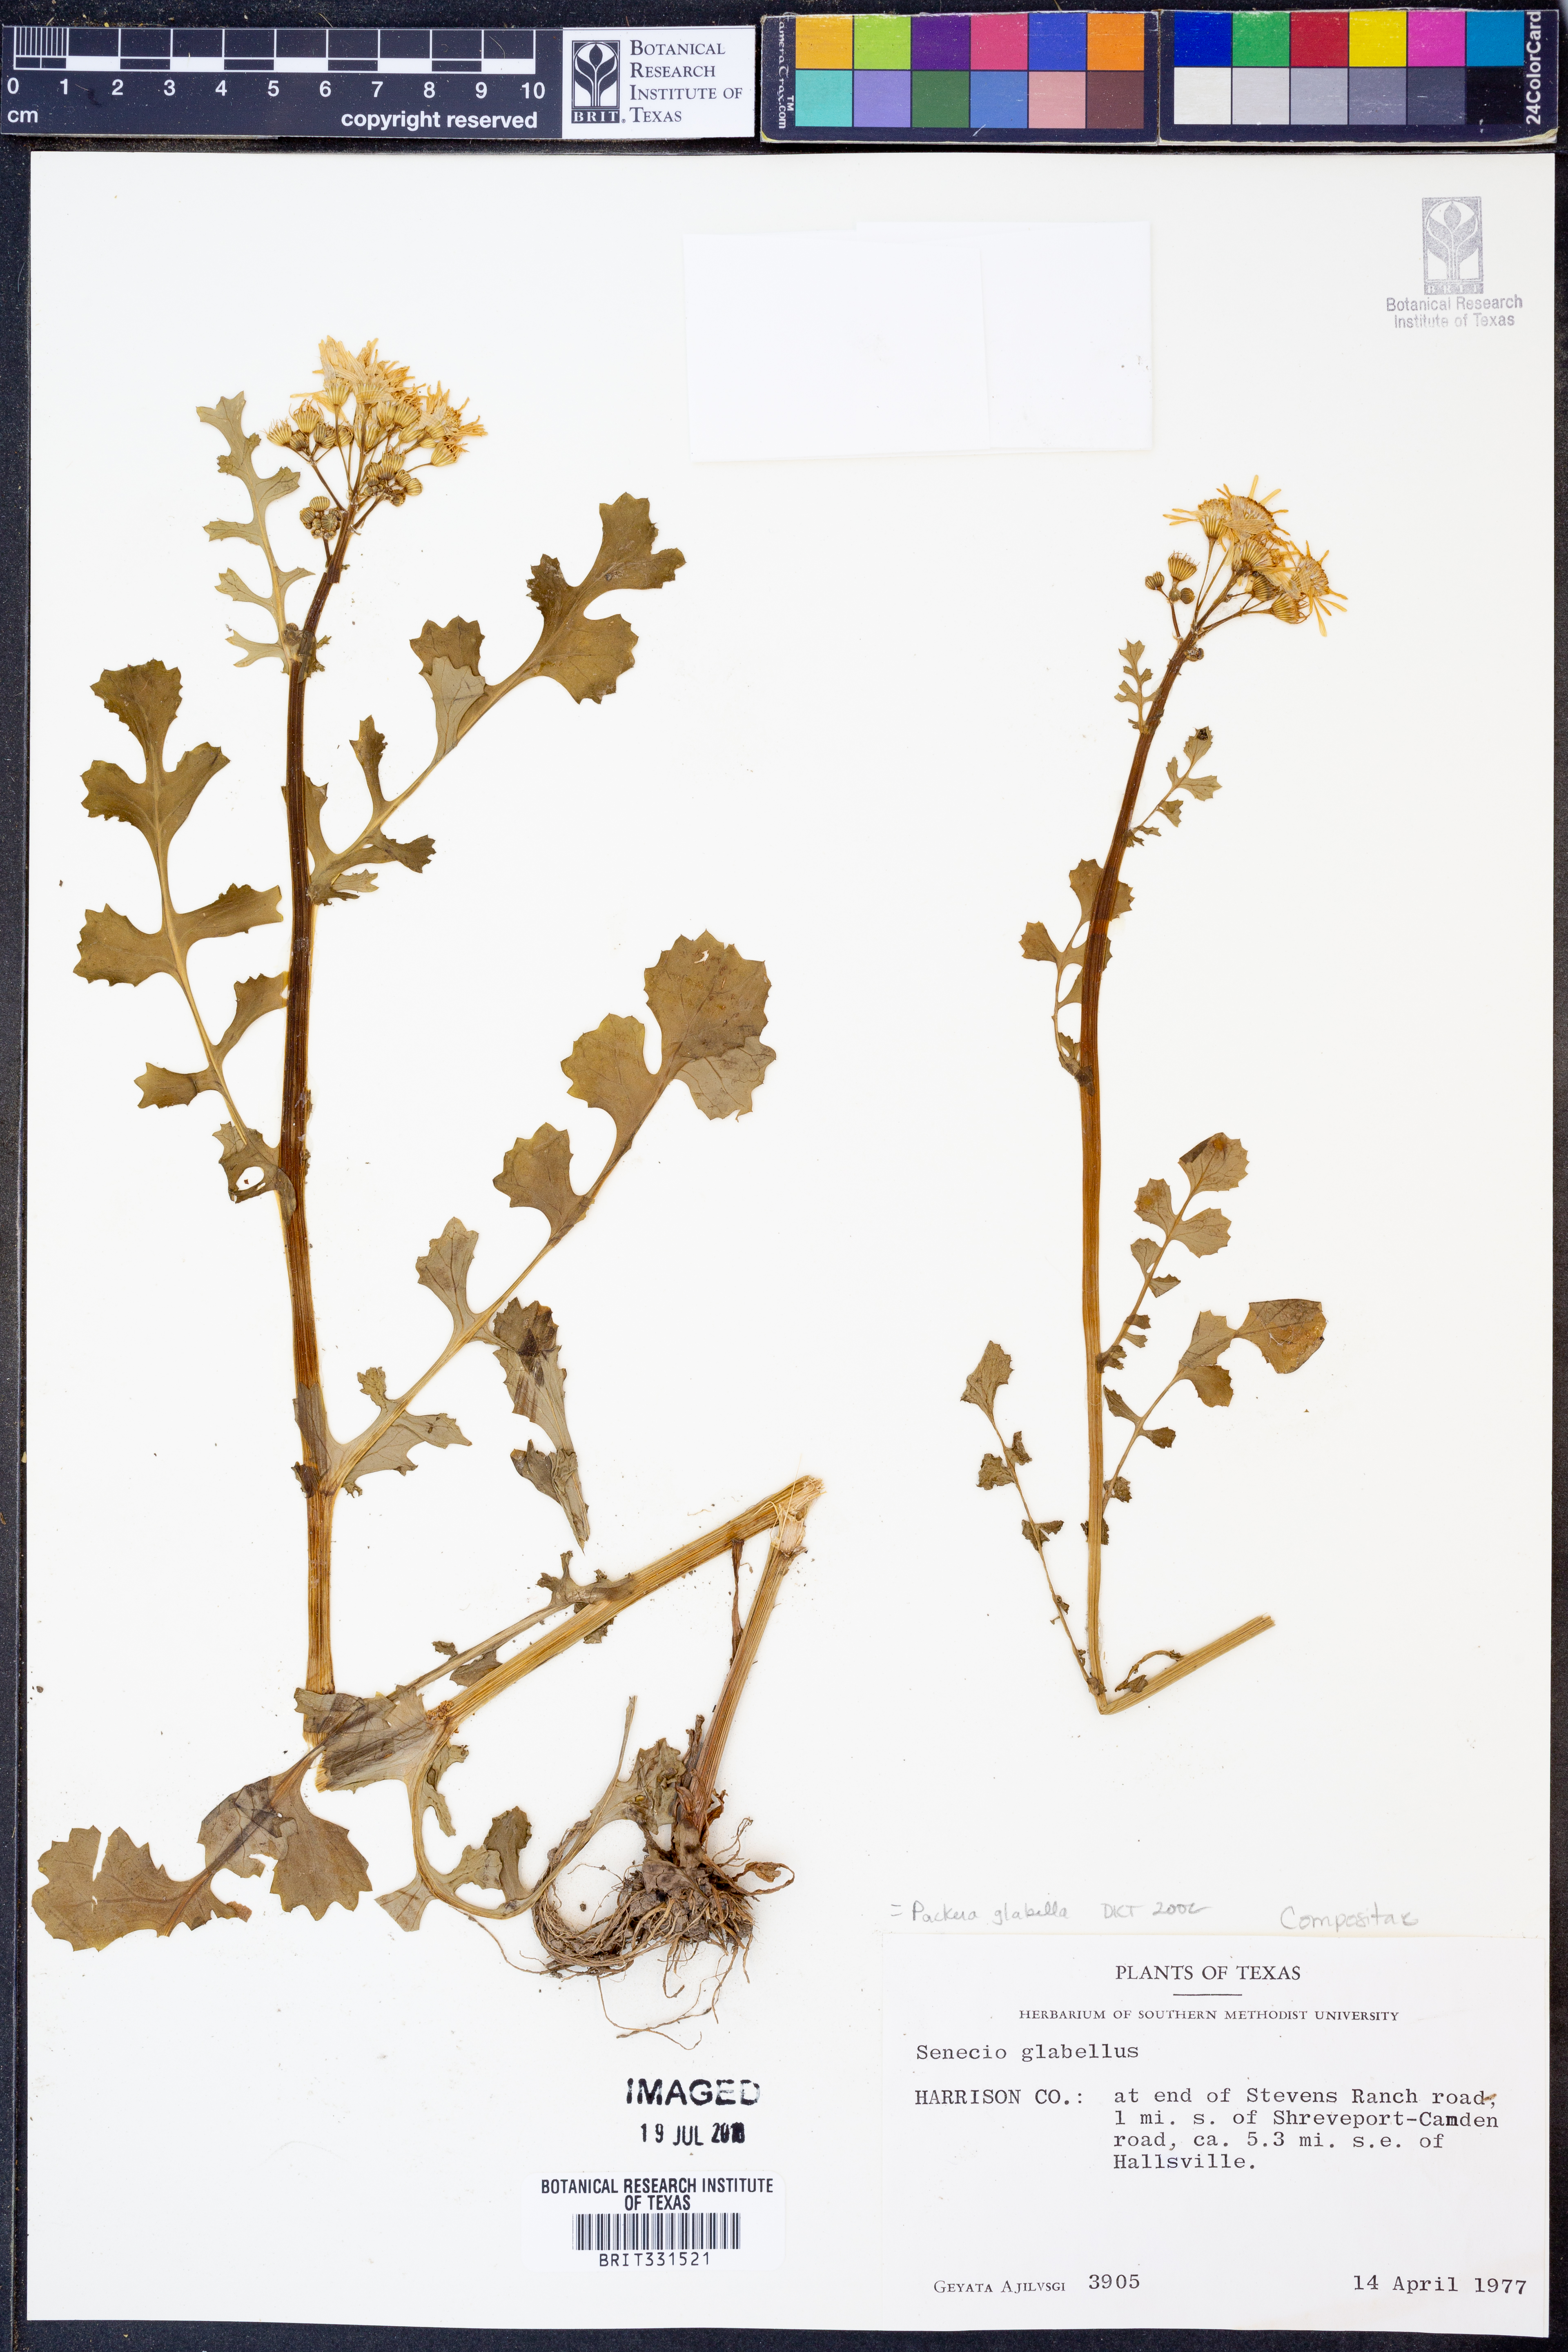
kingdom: Plantae
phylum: Tracheophyta
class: Magnoliopsida
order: Asterales
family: Asteraceae
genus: Packera
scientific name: Packera glabella
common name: Butterweed
